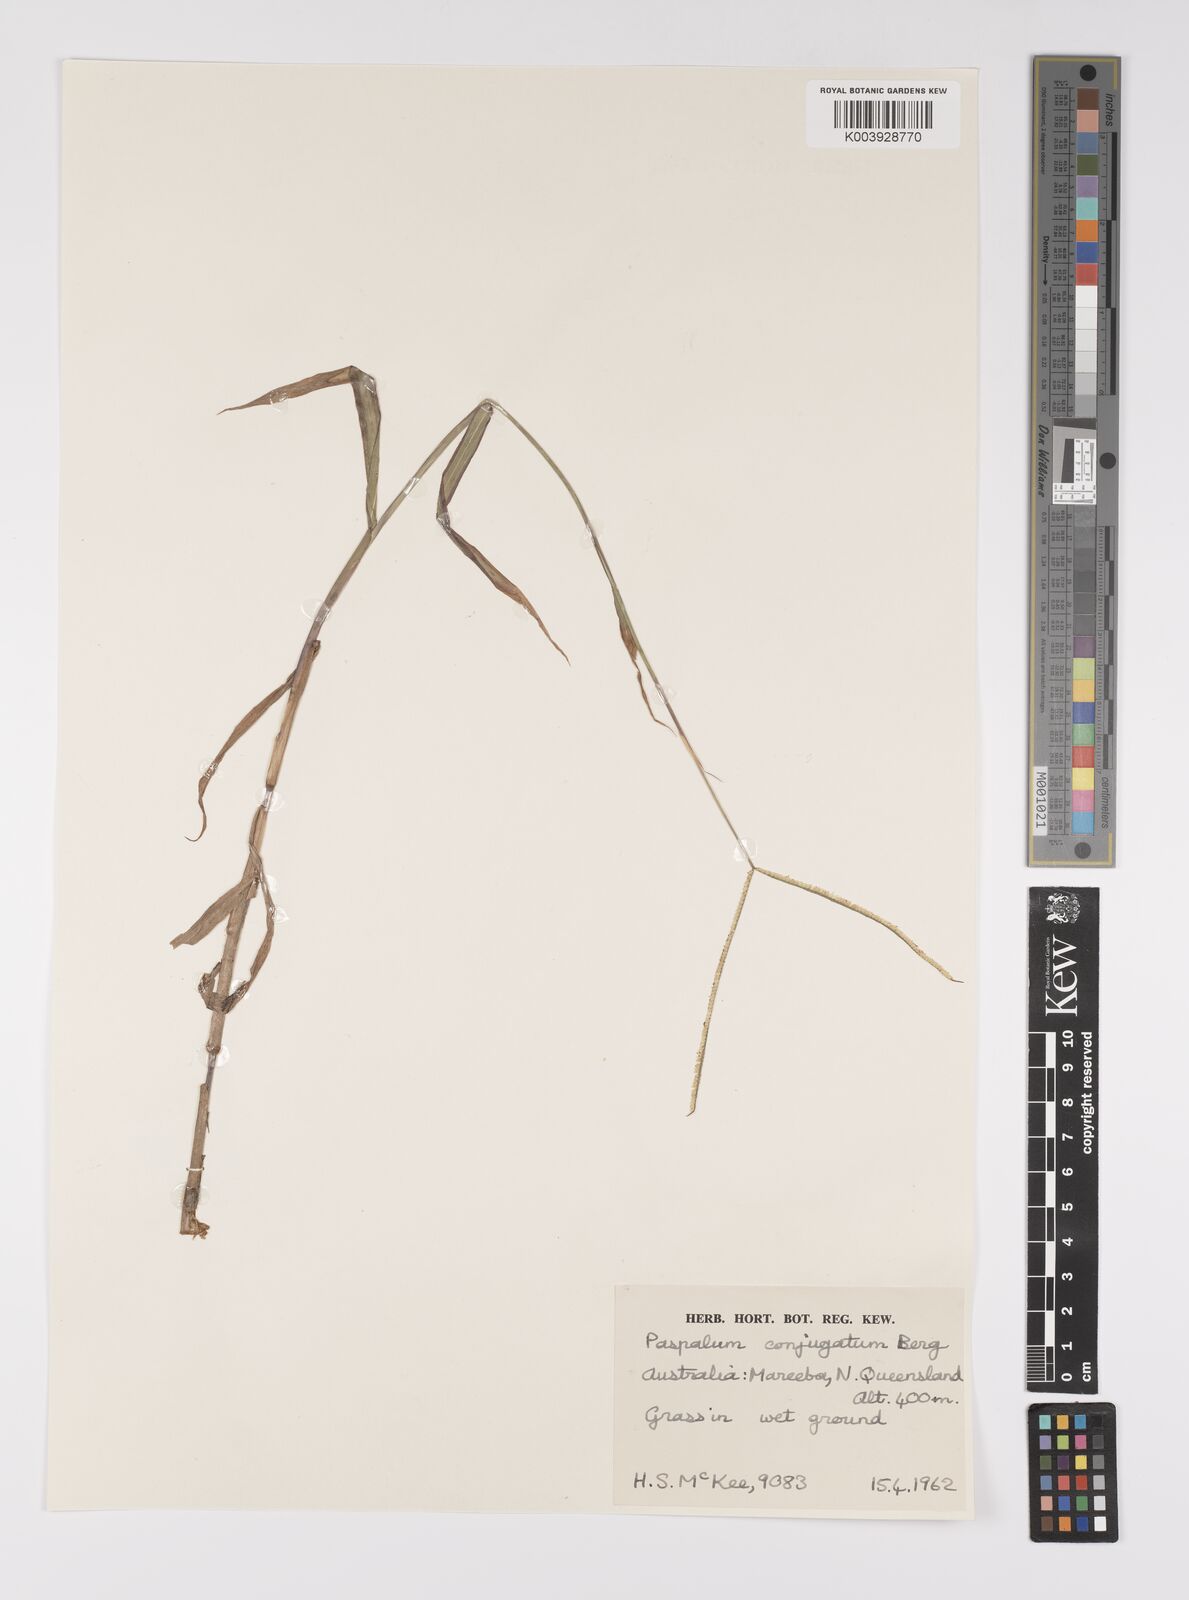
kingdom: Plantae
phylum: Tracheophyta
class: Liliopsida
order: Poales
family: Poaceae
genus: Paspalum
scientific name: Paspalum conjugatum
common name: Hilograss
